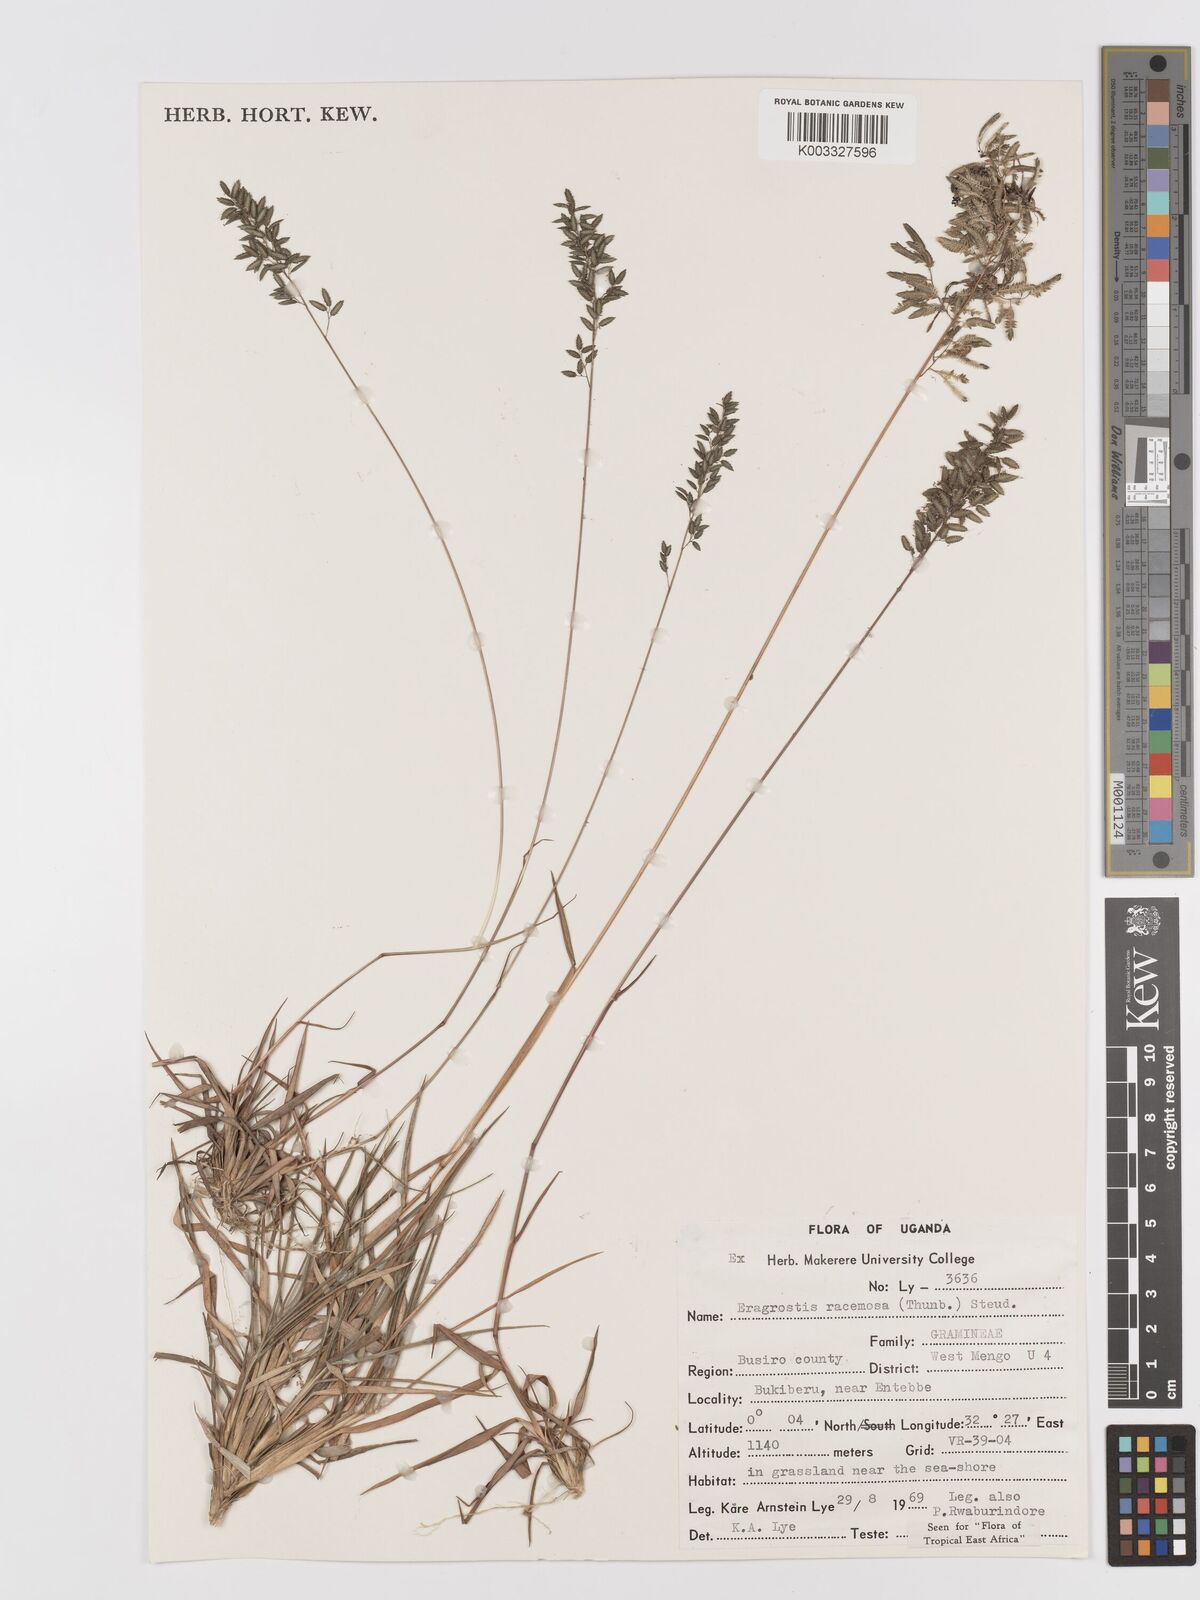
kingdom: Plantae
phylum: Tracheophyta
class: Liliopsida
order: Poales
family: Poaceae
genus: Eragrostis
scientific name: Eragrostis racemosa
